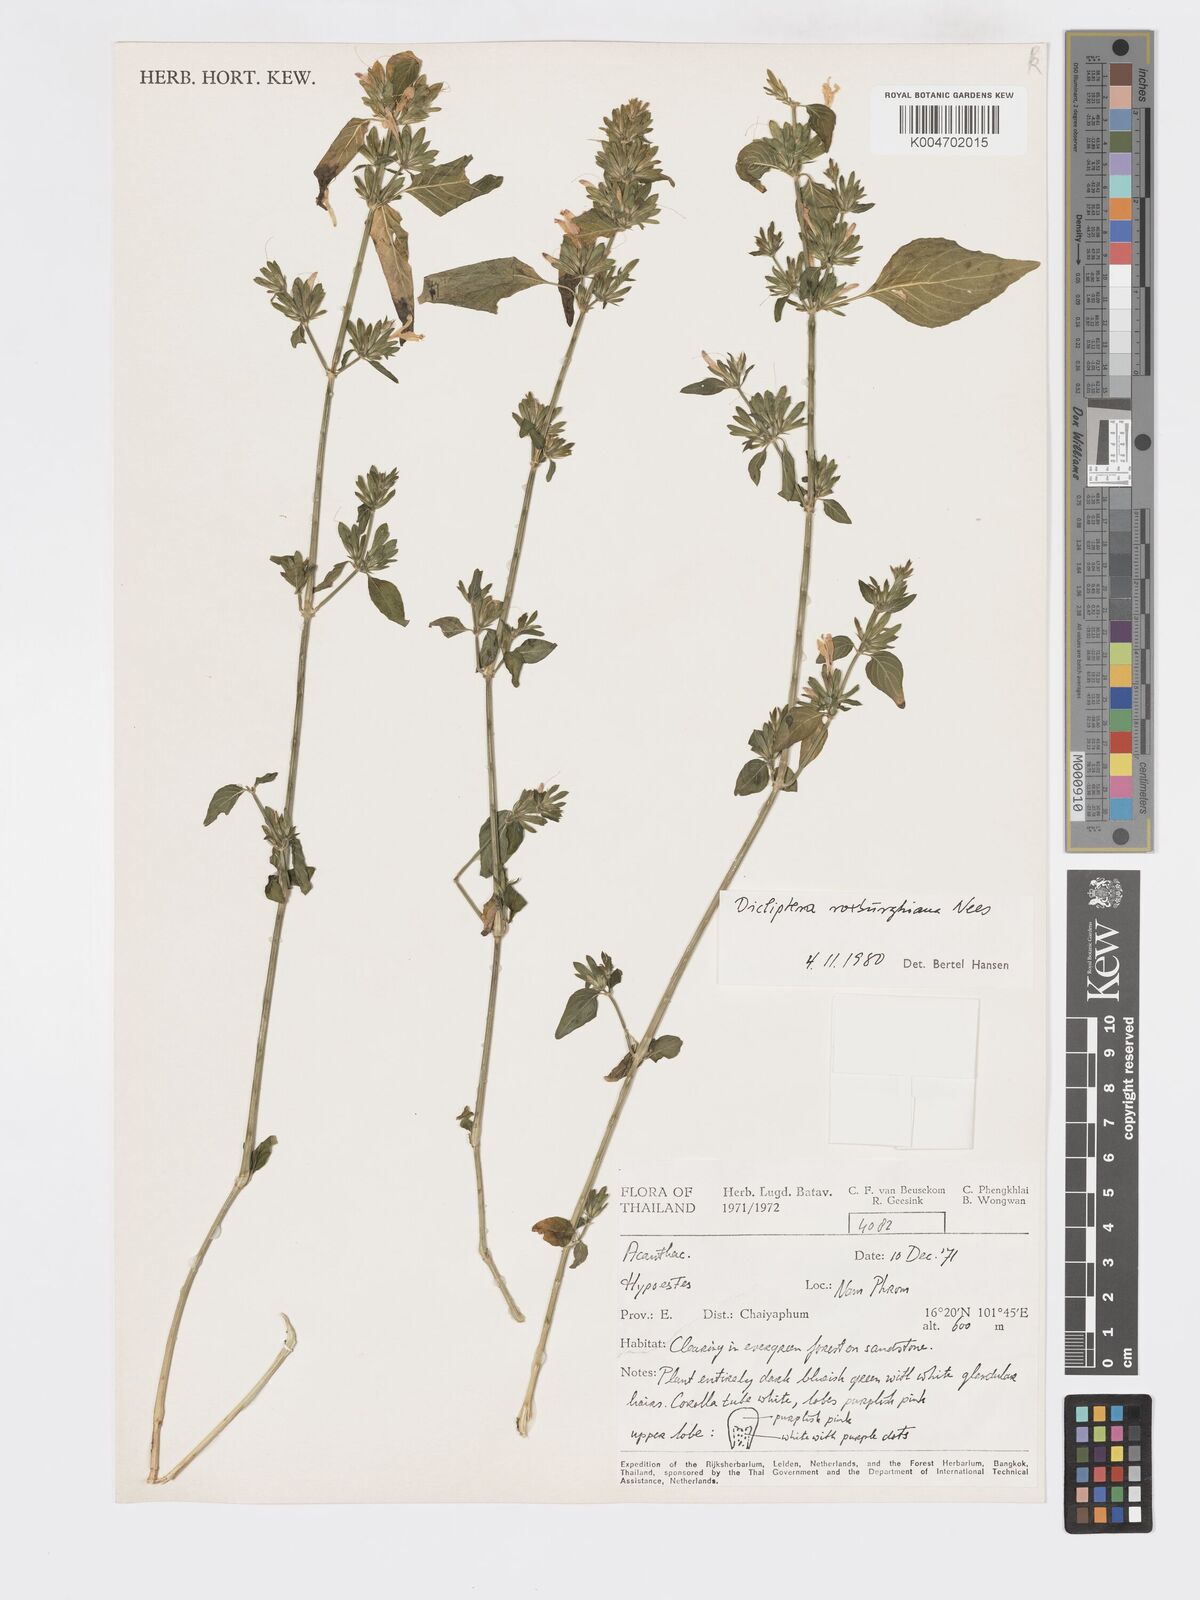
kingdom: Plantae
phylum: Tracheophyta
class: Magnoliopsida
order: Lamiales
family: Acanthaceae
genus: Dicliptera
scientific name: Dicliptera chinensis
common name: Chinese foldwing
